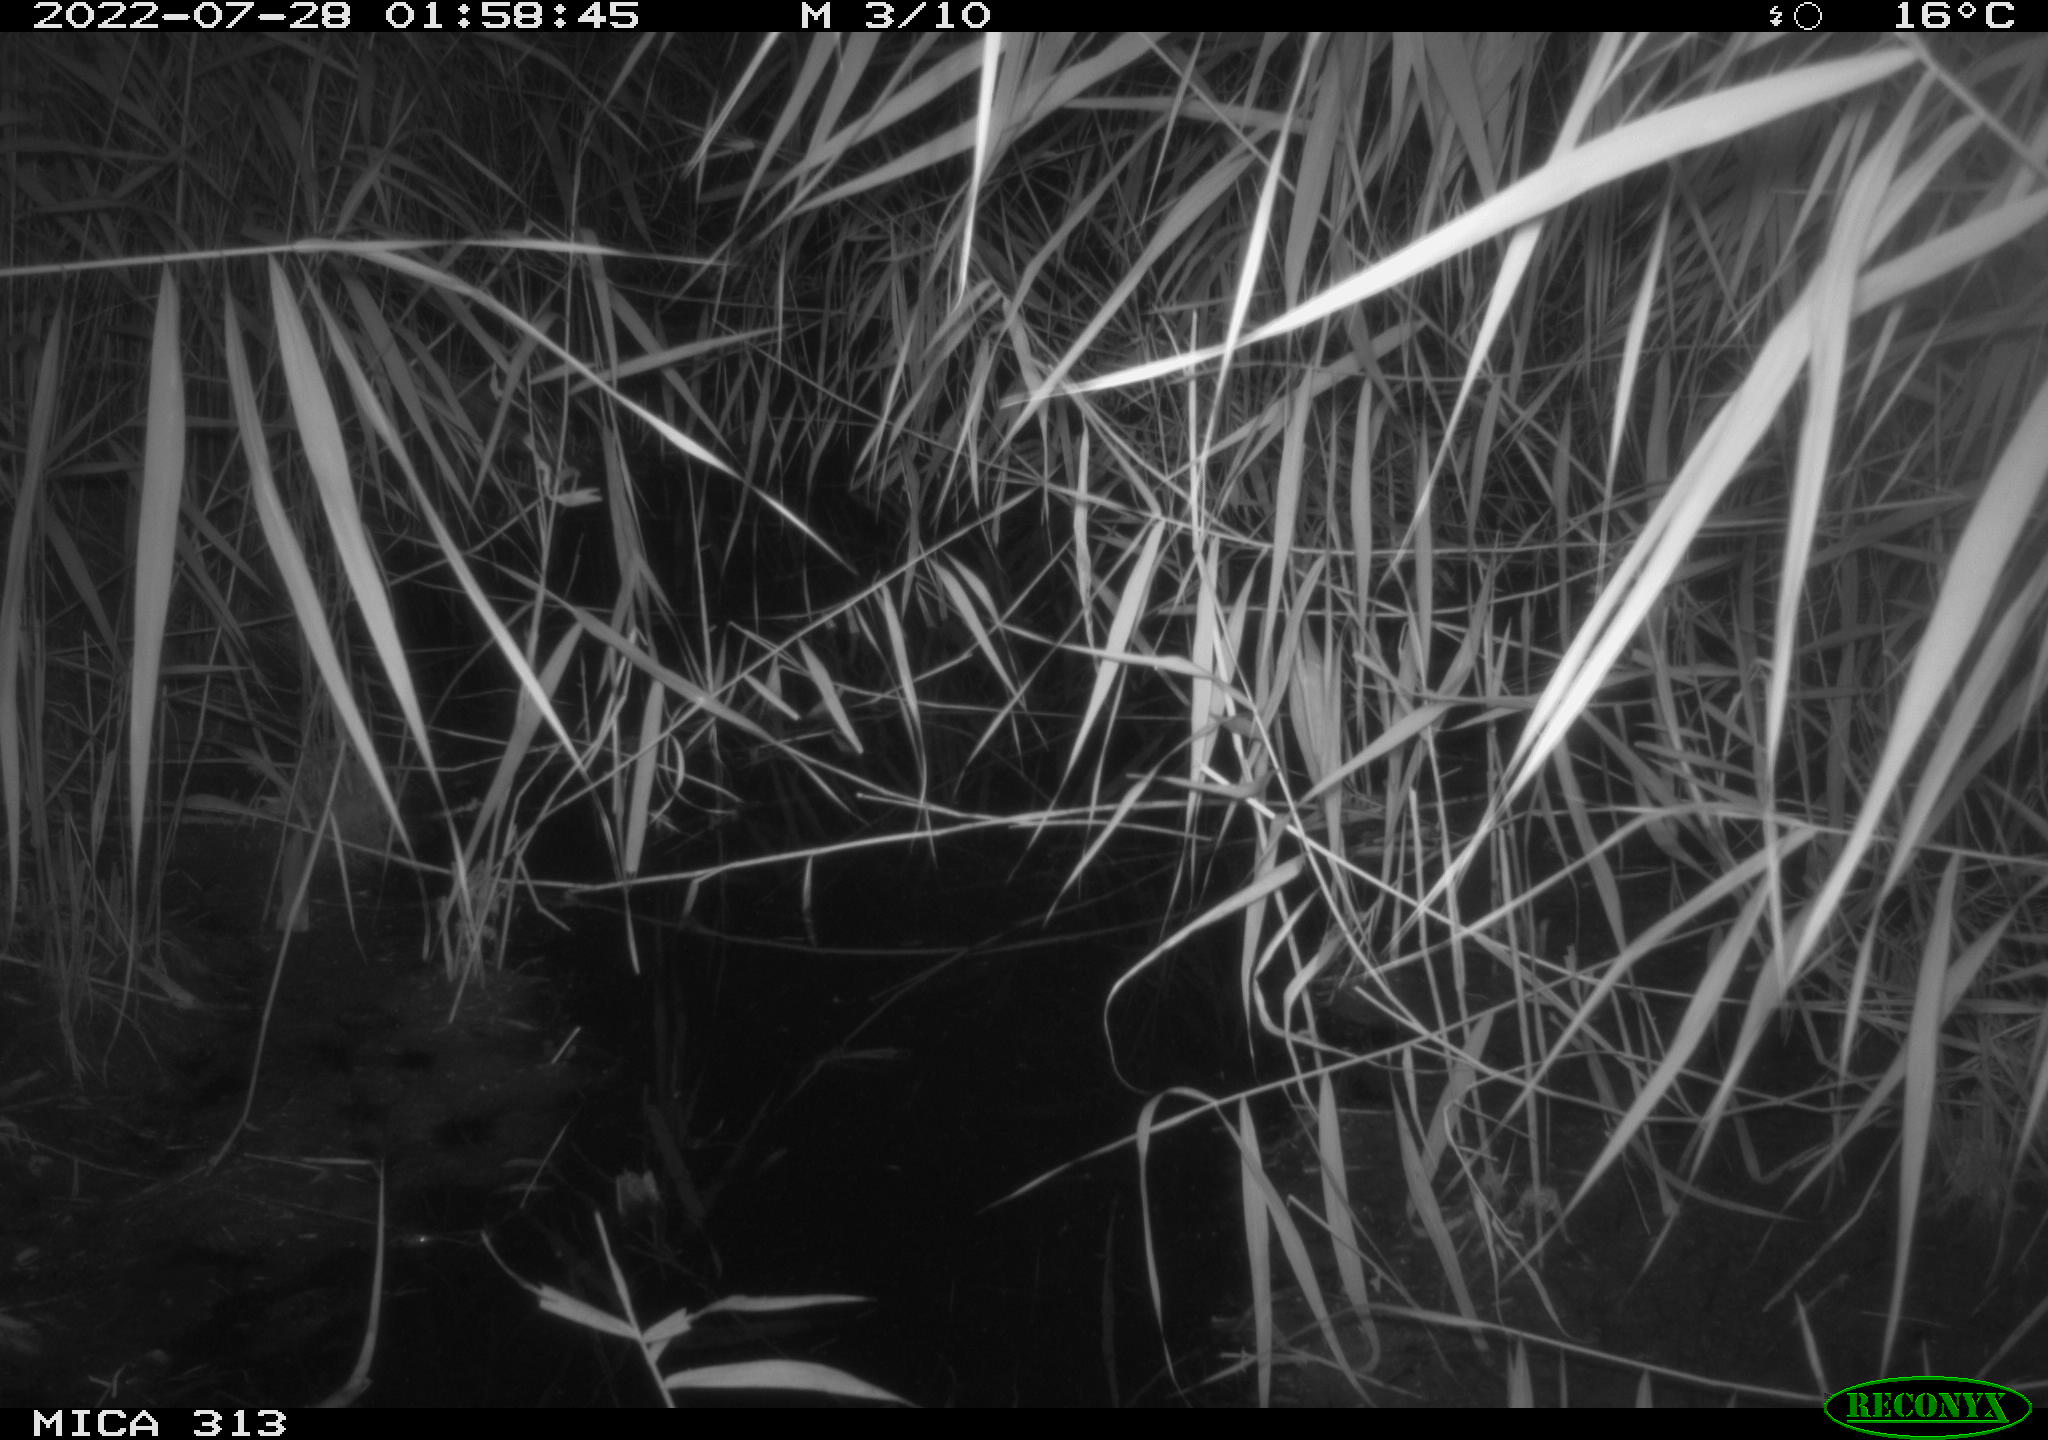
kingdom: Animalia
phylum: Chordata
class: Mammalia
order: Rodentia
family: Muridae
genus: Rattus
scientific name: Rattus norvegicus
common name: Brown rat
